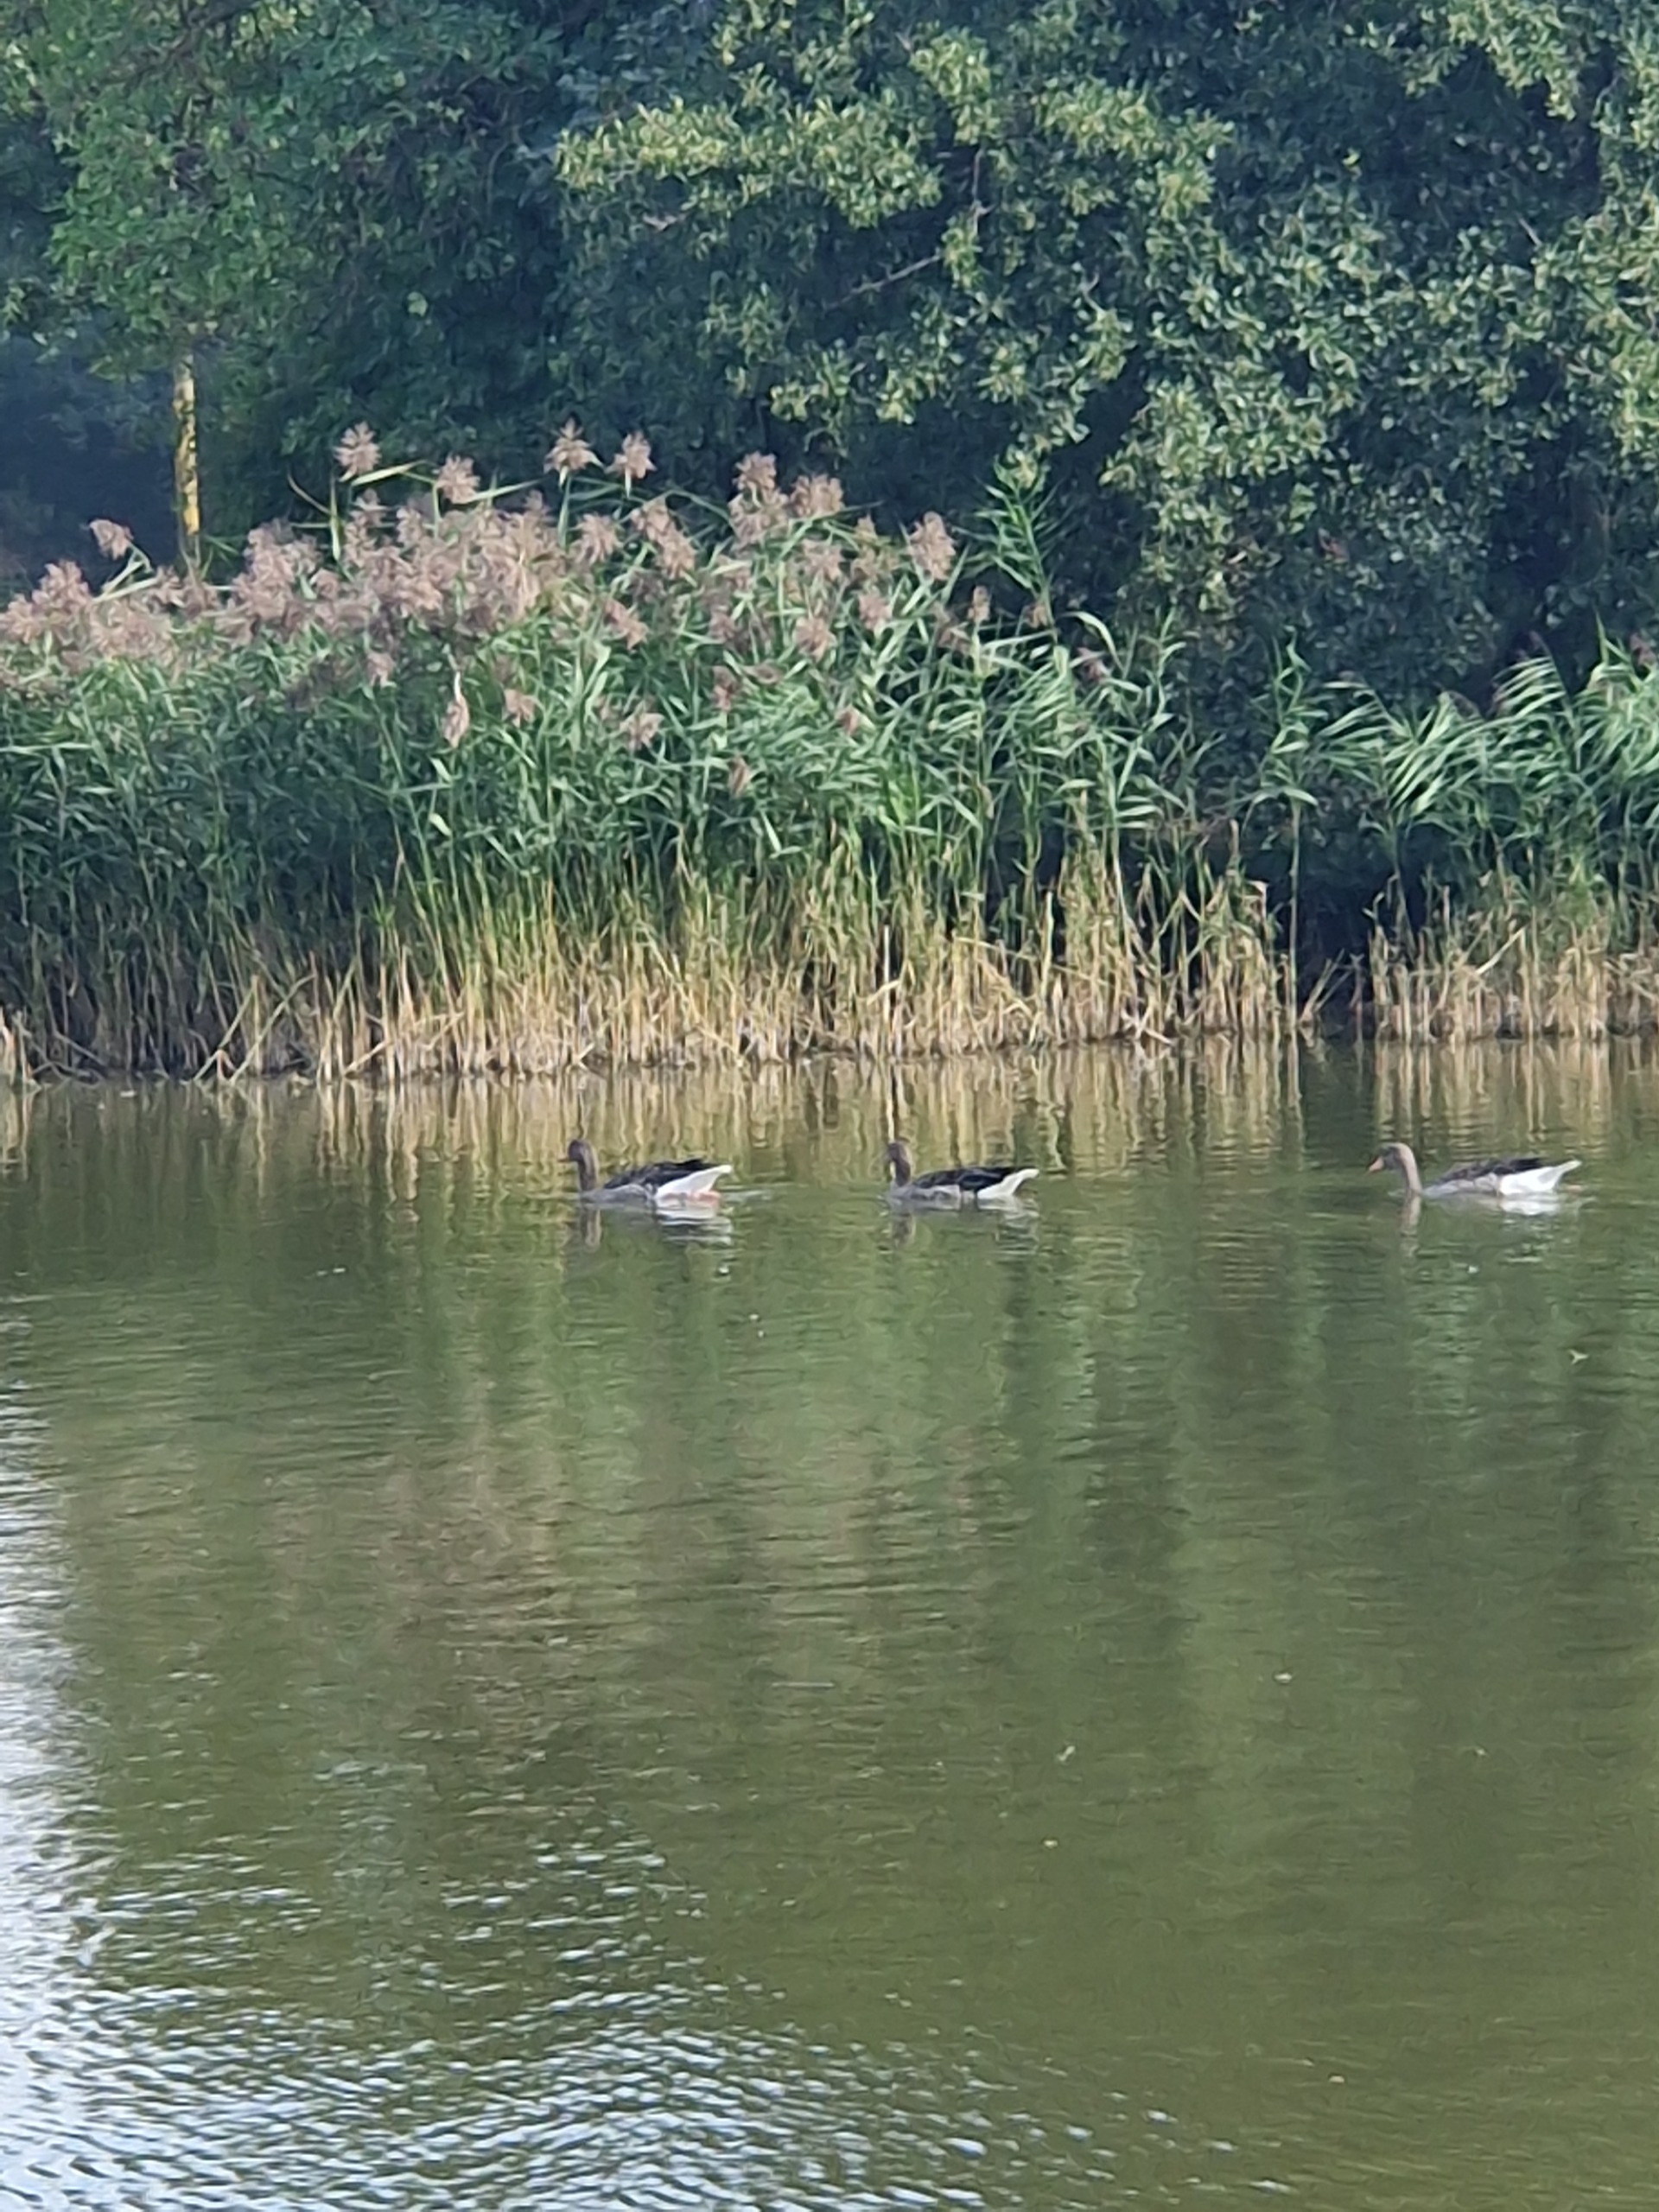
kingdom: Animalia
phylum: Chordata
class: Aves
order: Anseriformes
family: Anatidae
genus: Anser
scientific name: Anser anser
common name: Grågås
